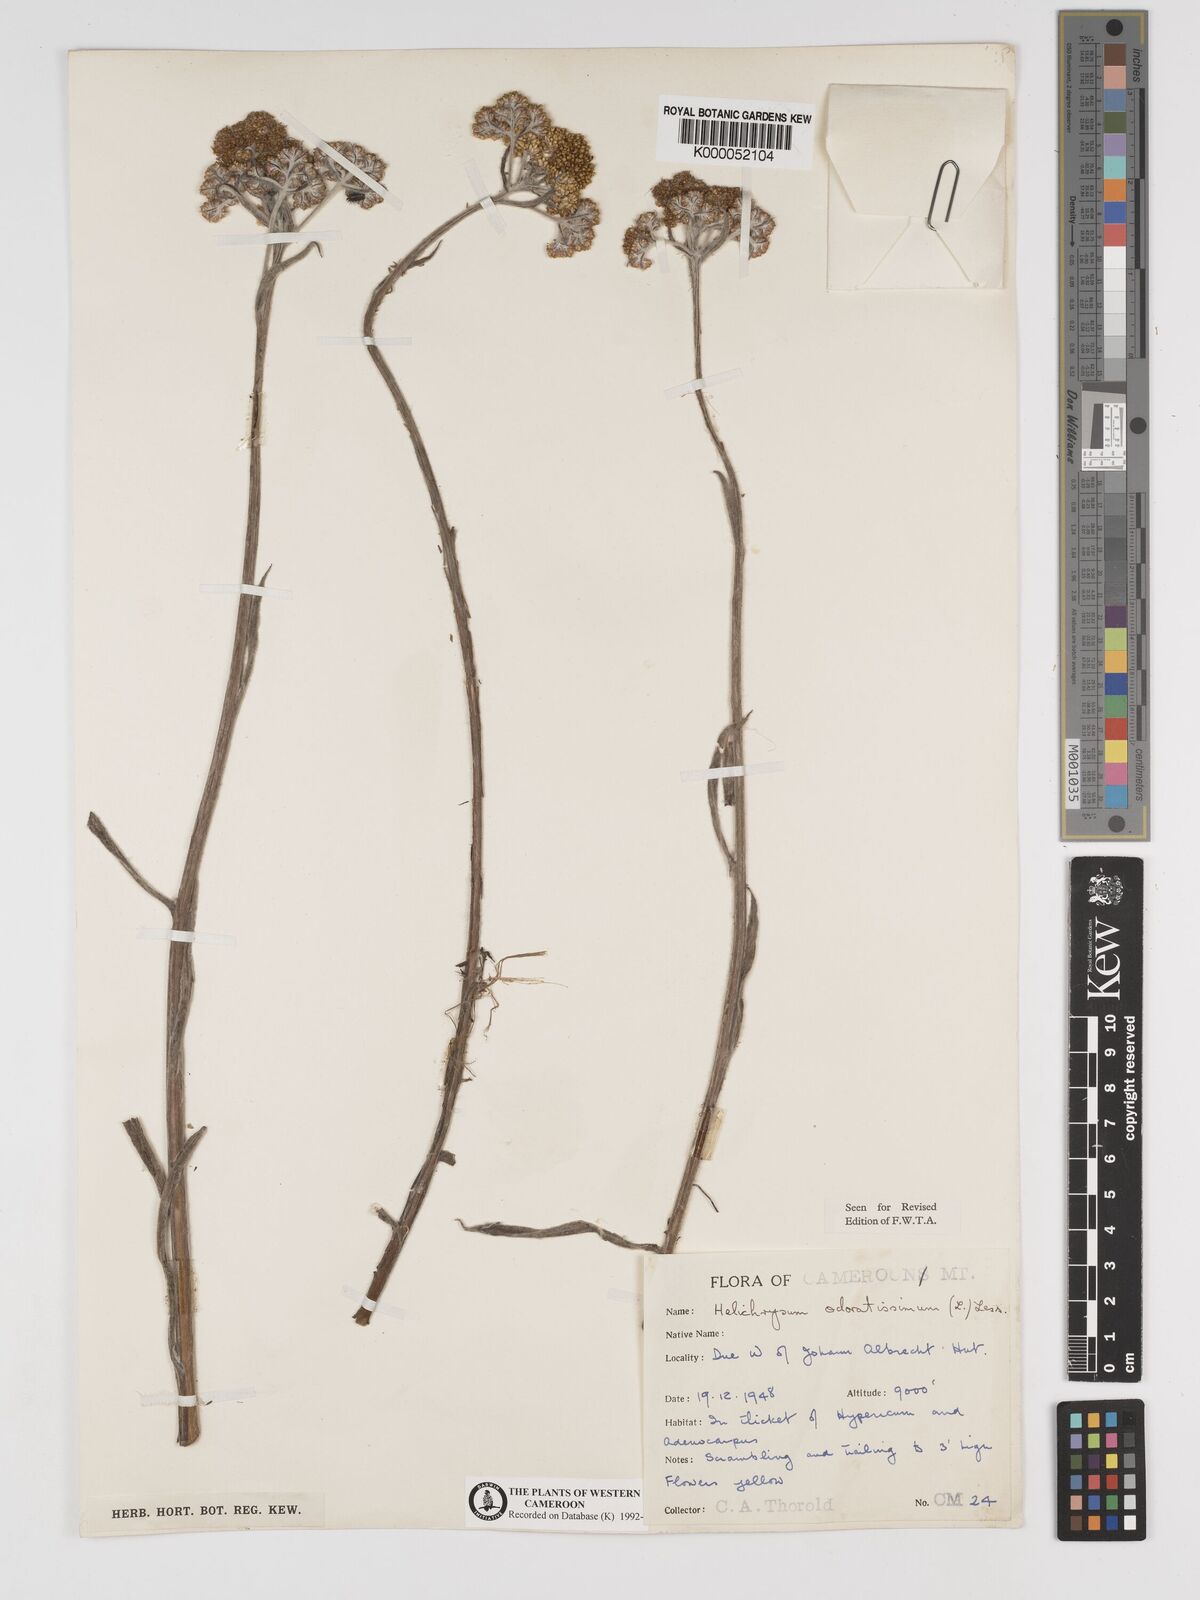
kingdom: Plantae
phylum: Tracheophyta
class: Magnoliopsida
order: Asterales
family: Asteraceae
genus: Helichrysum
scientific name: Helichrysum odoratissimum
